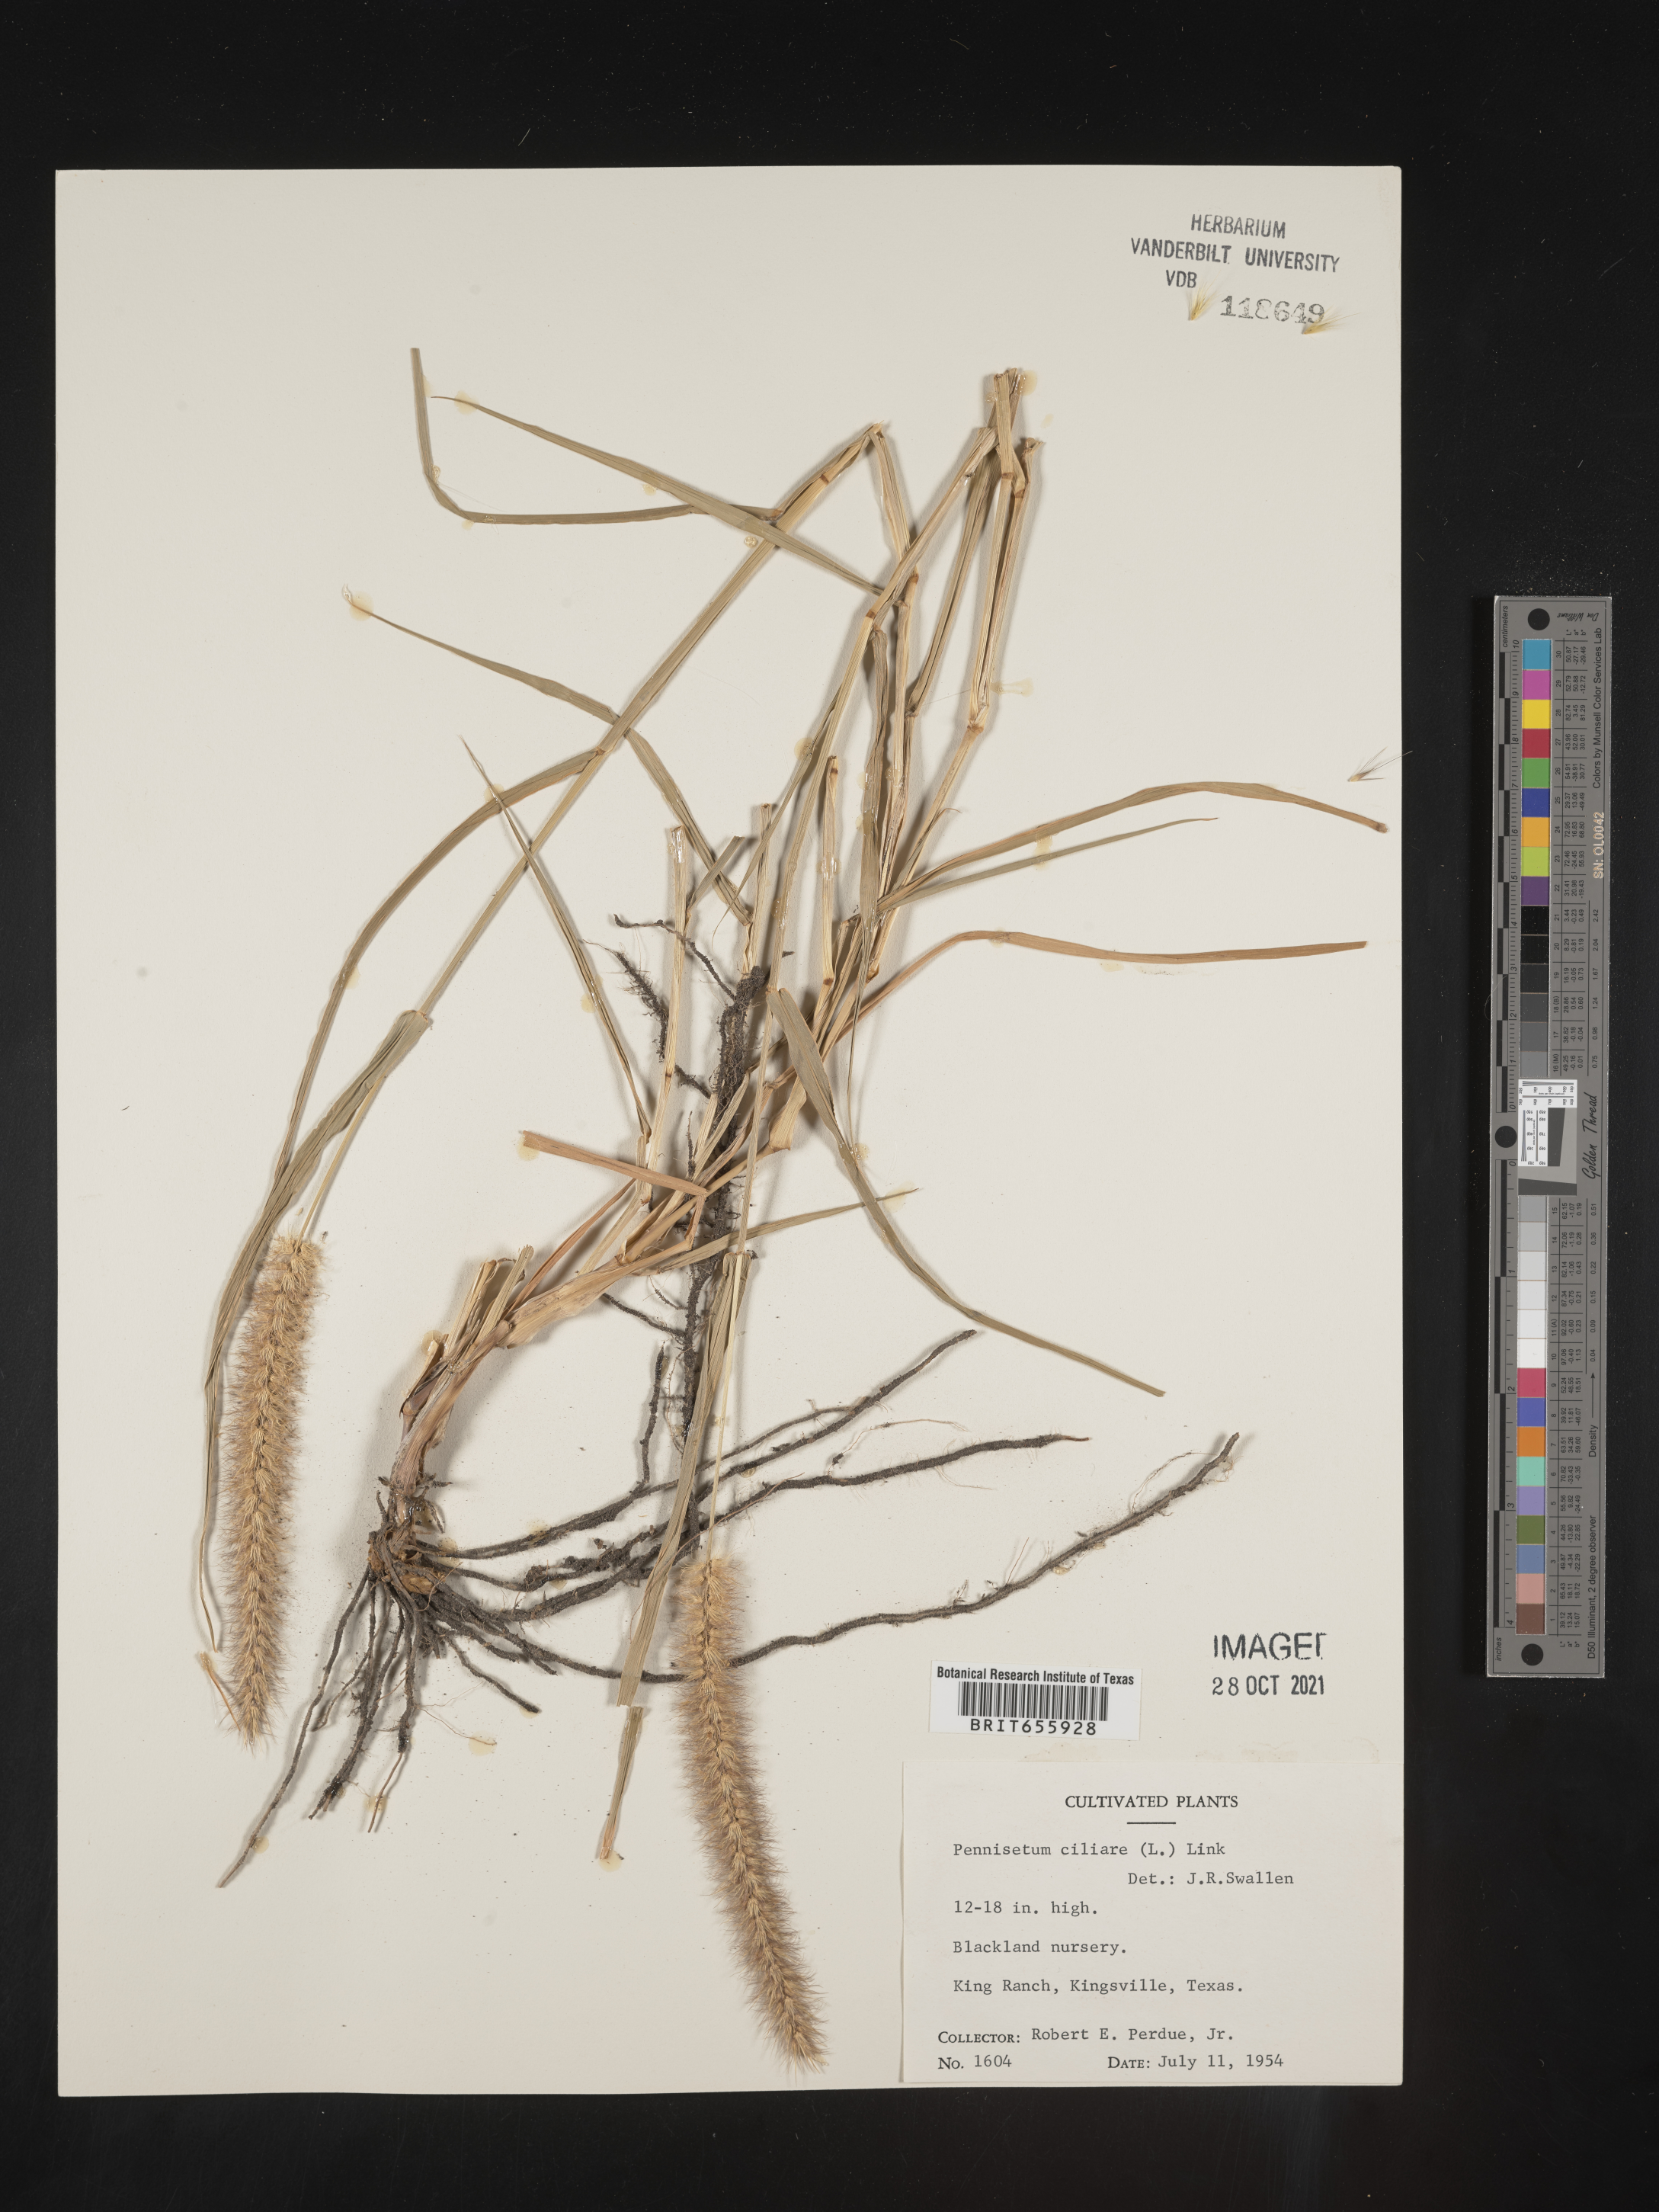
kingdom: Plantae
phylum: Tracheophyta
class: Liliopsida
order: Poales
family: Poaceae
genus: Cenchrus
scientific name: Cenchrus Pennisetum spec
